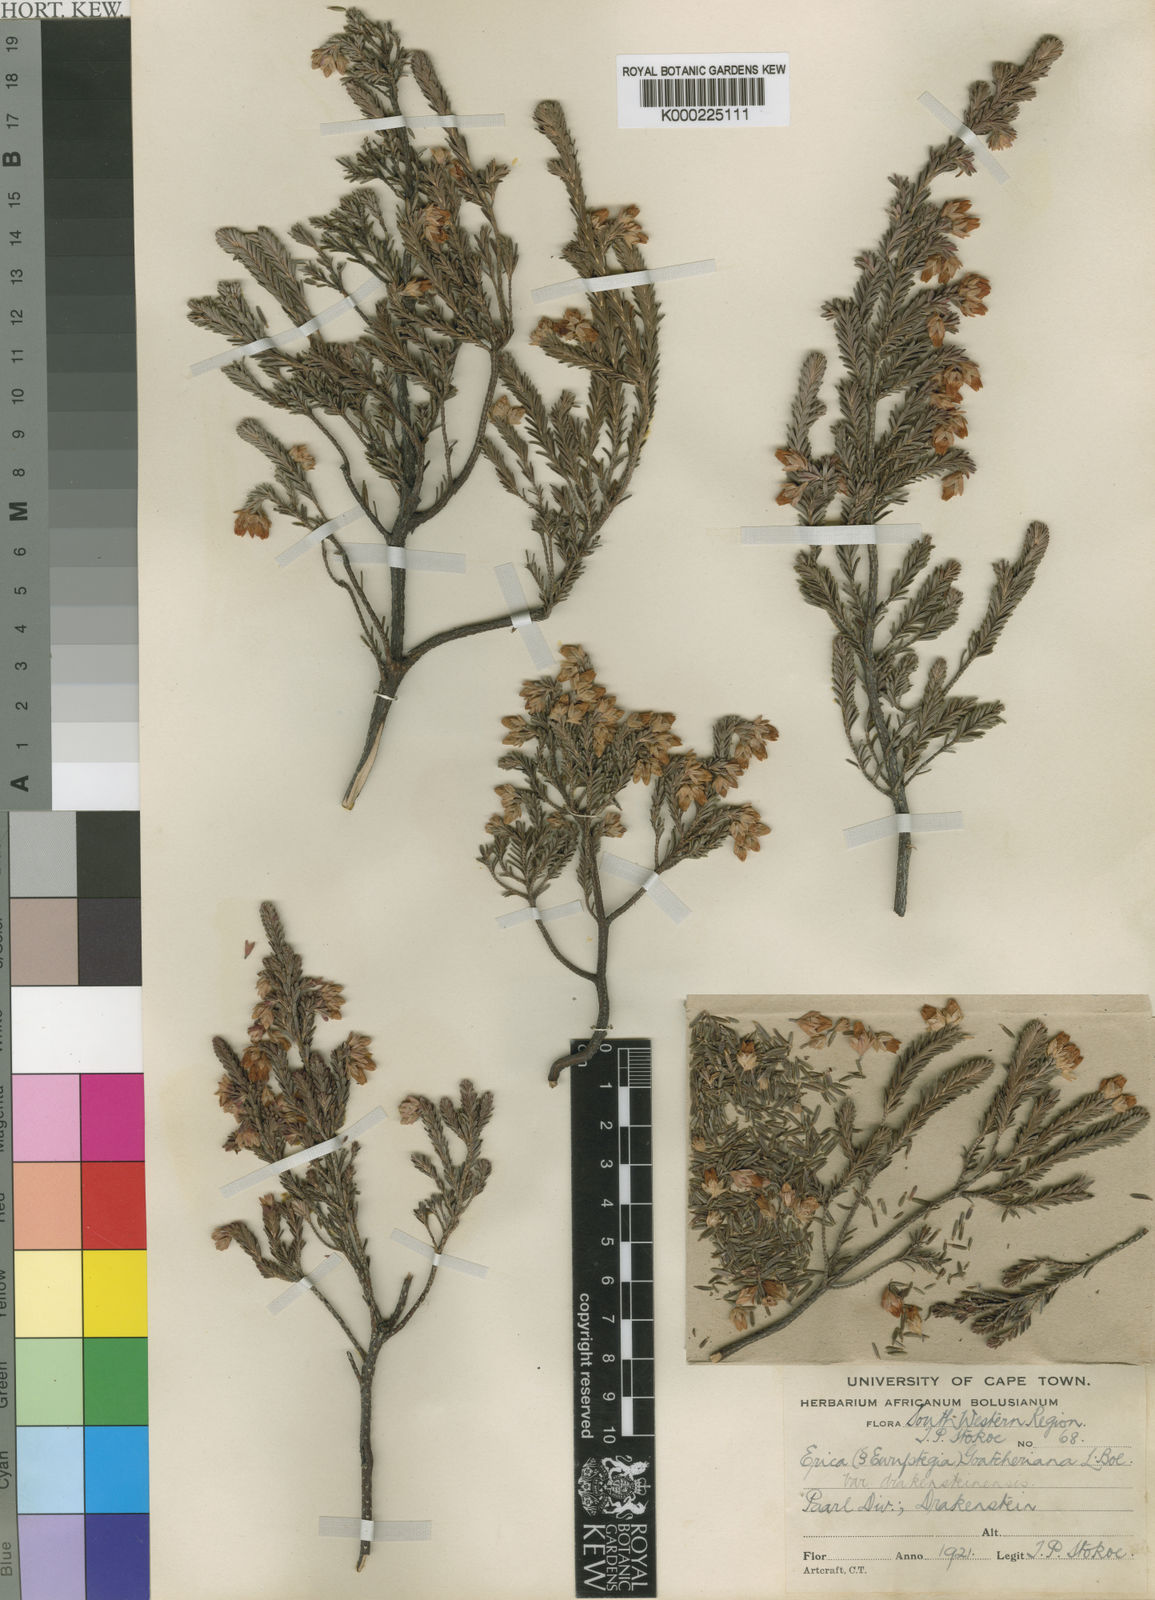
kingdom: Plantae
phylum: Tracheophyta
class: Magnoliopsida
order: Ericales
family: Ericaceae
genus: Erica
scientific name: Erica goatcheriana
